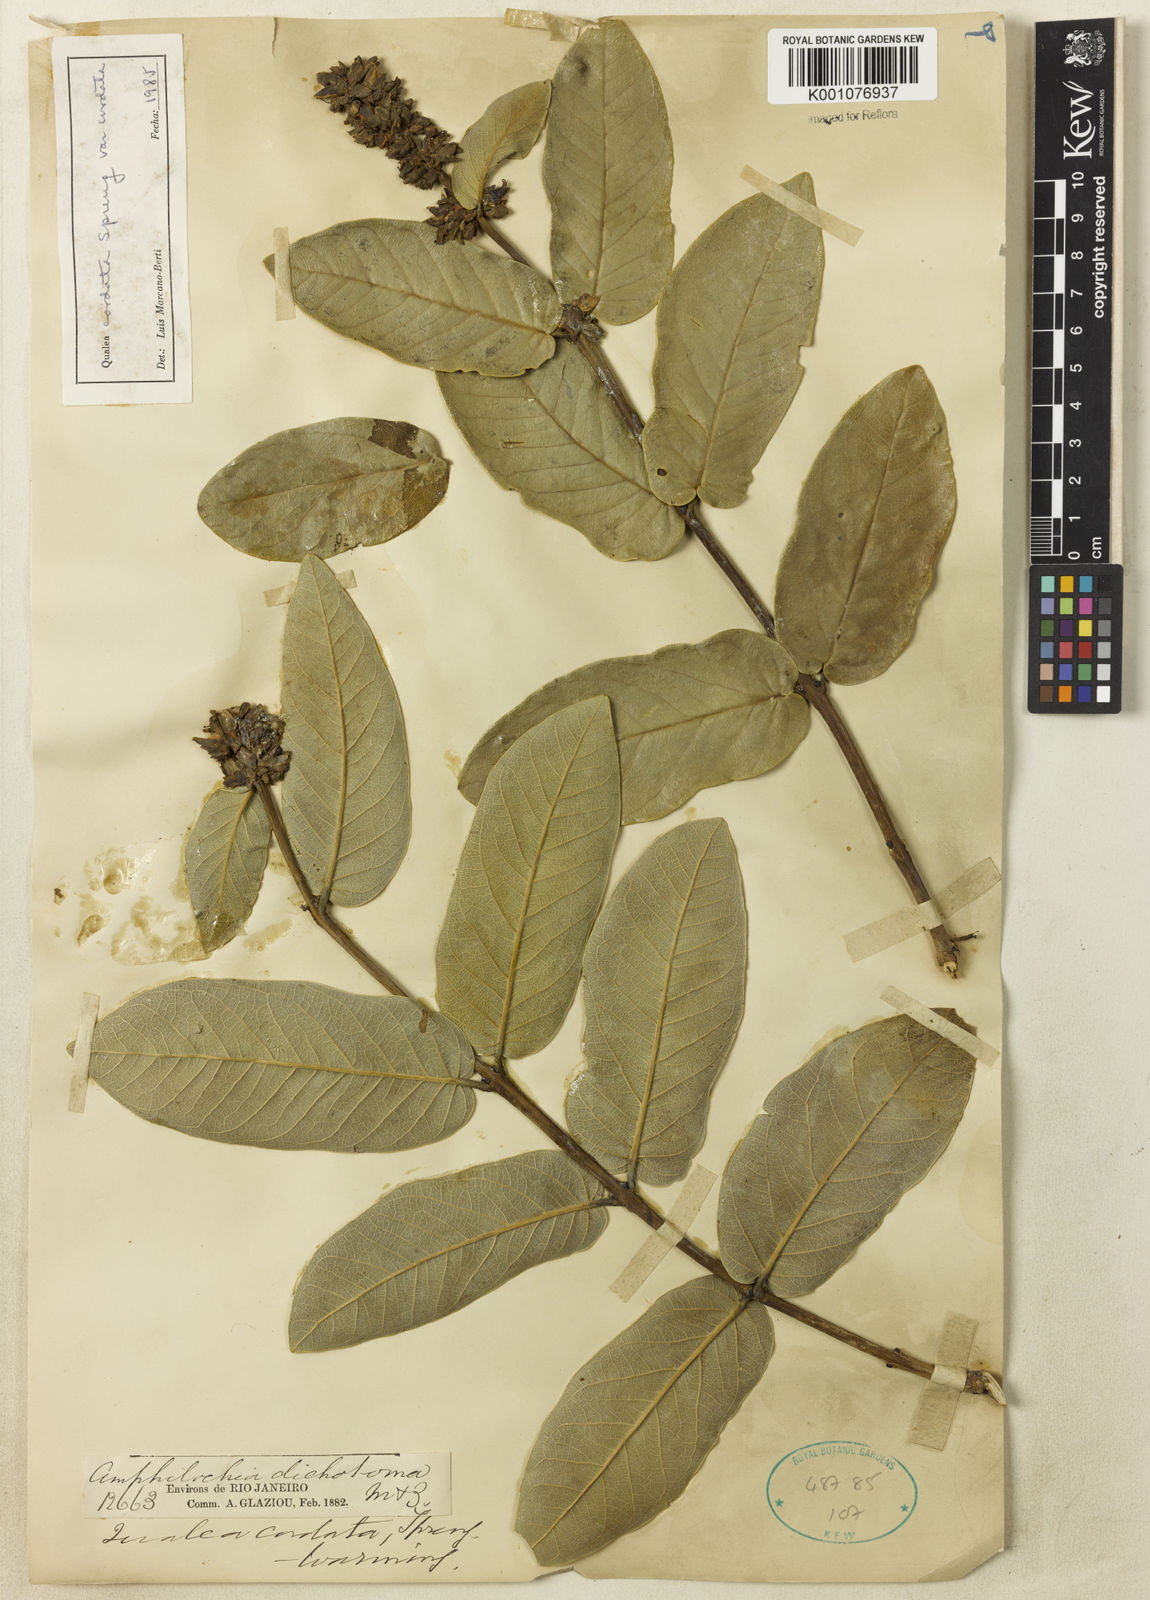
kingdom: Plantae
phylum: Tracheophyta
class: Magnoliopsida
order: Myrtales
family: Vochysiaceae
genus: Qualea
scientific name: Qualea cordata
